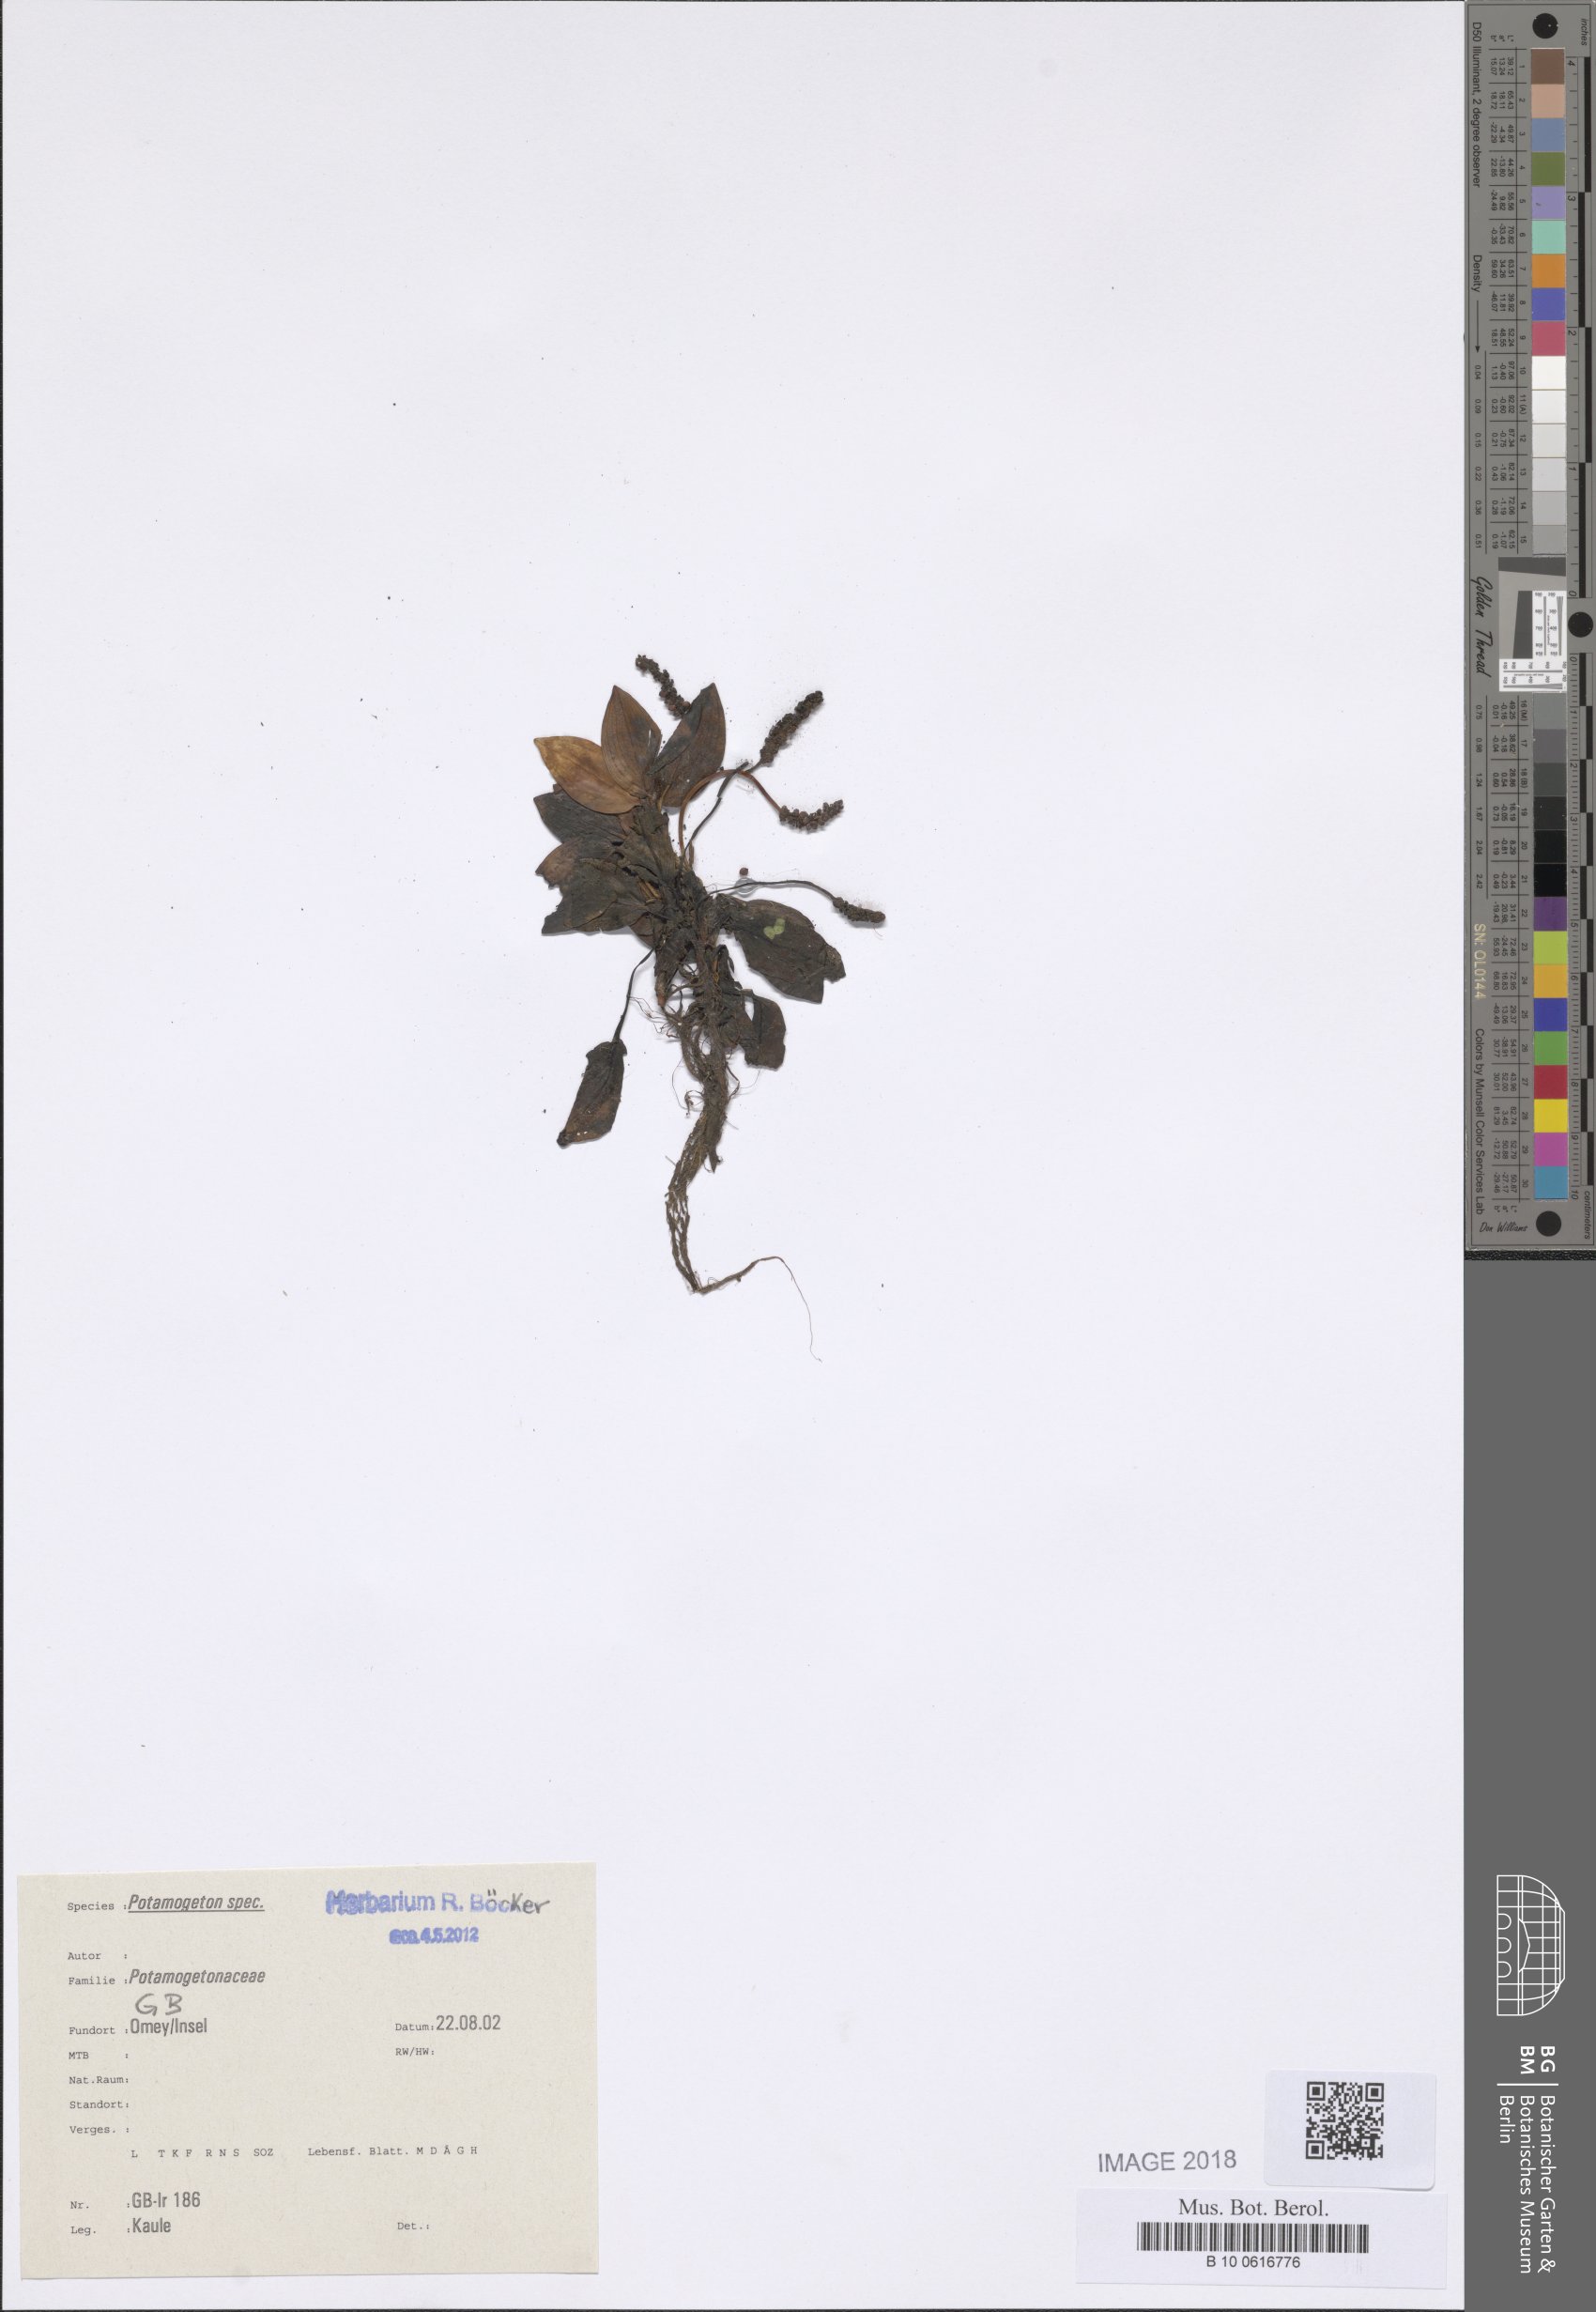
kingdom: Plantae
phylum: Tracheophyta
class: Liliopsida
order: Alismatales
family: Potamogetonaceae
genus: Potamogeton
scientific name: Potamogeton polygonifolius
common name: Bog pondweed
